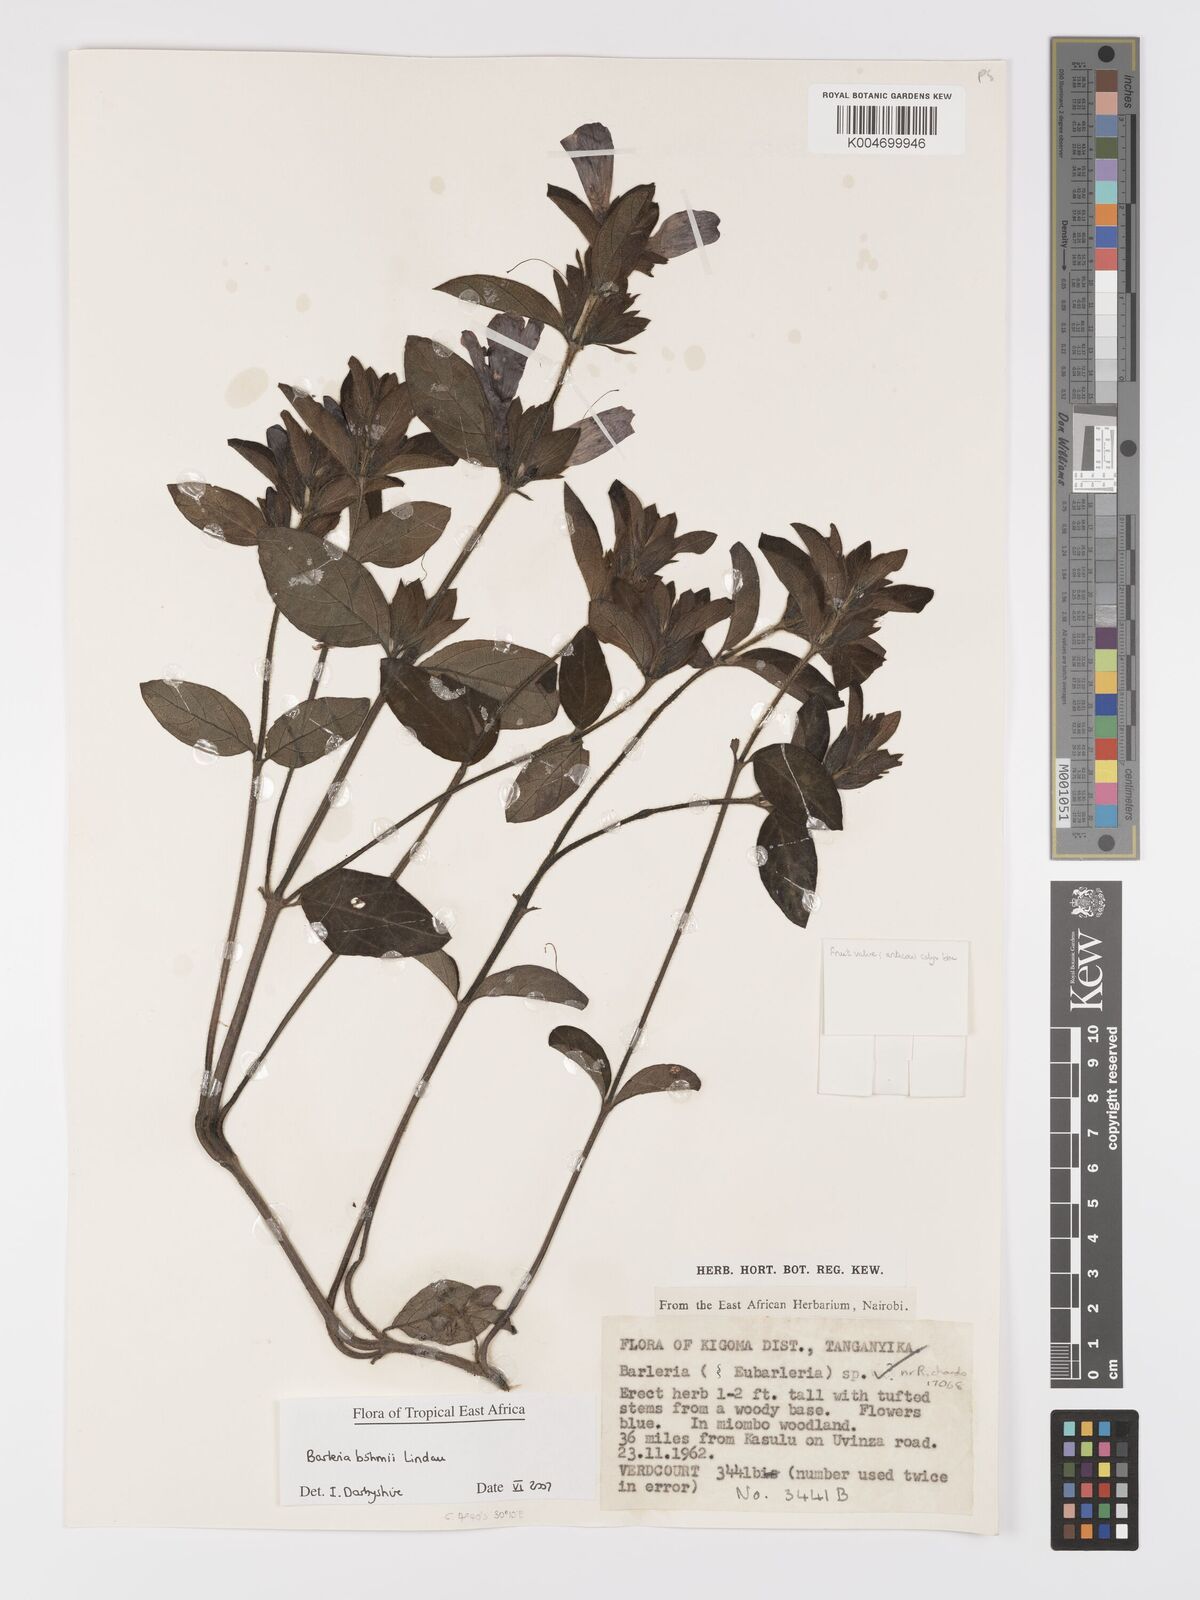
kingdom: Plantae
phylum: Tracheophyta
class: Magnoliopsida
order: Lamiales
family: Acanthaceae
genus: Barleria
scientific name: Barleria boehmii
